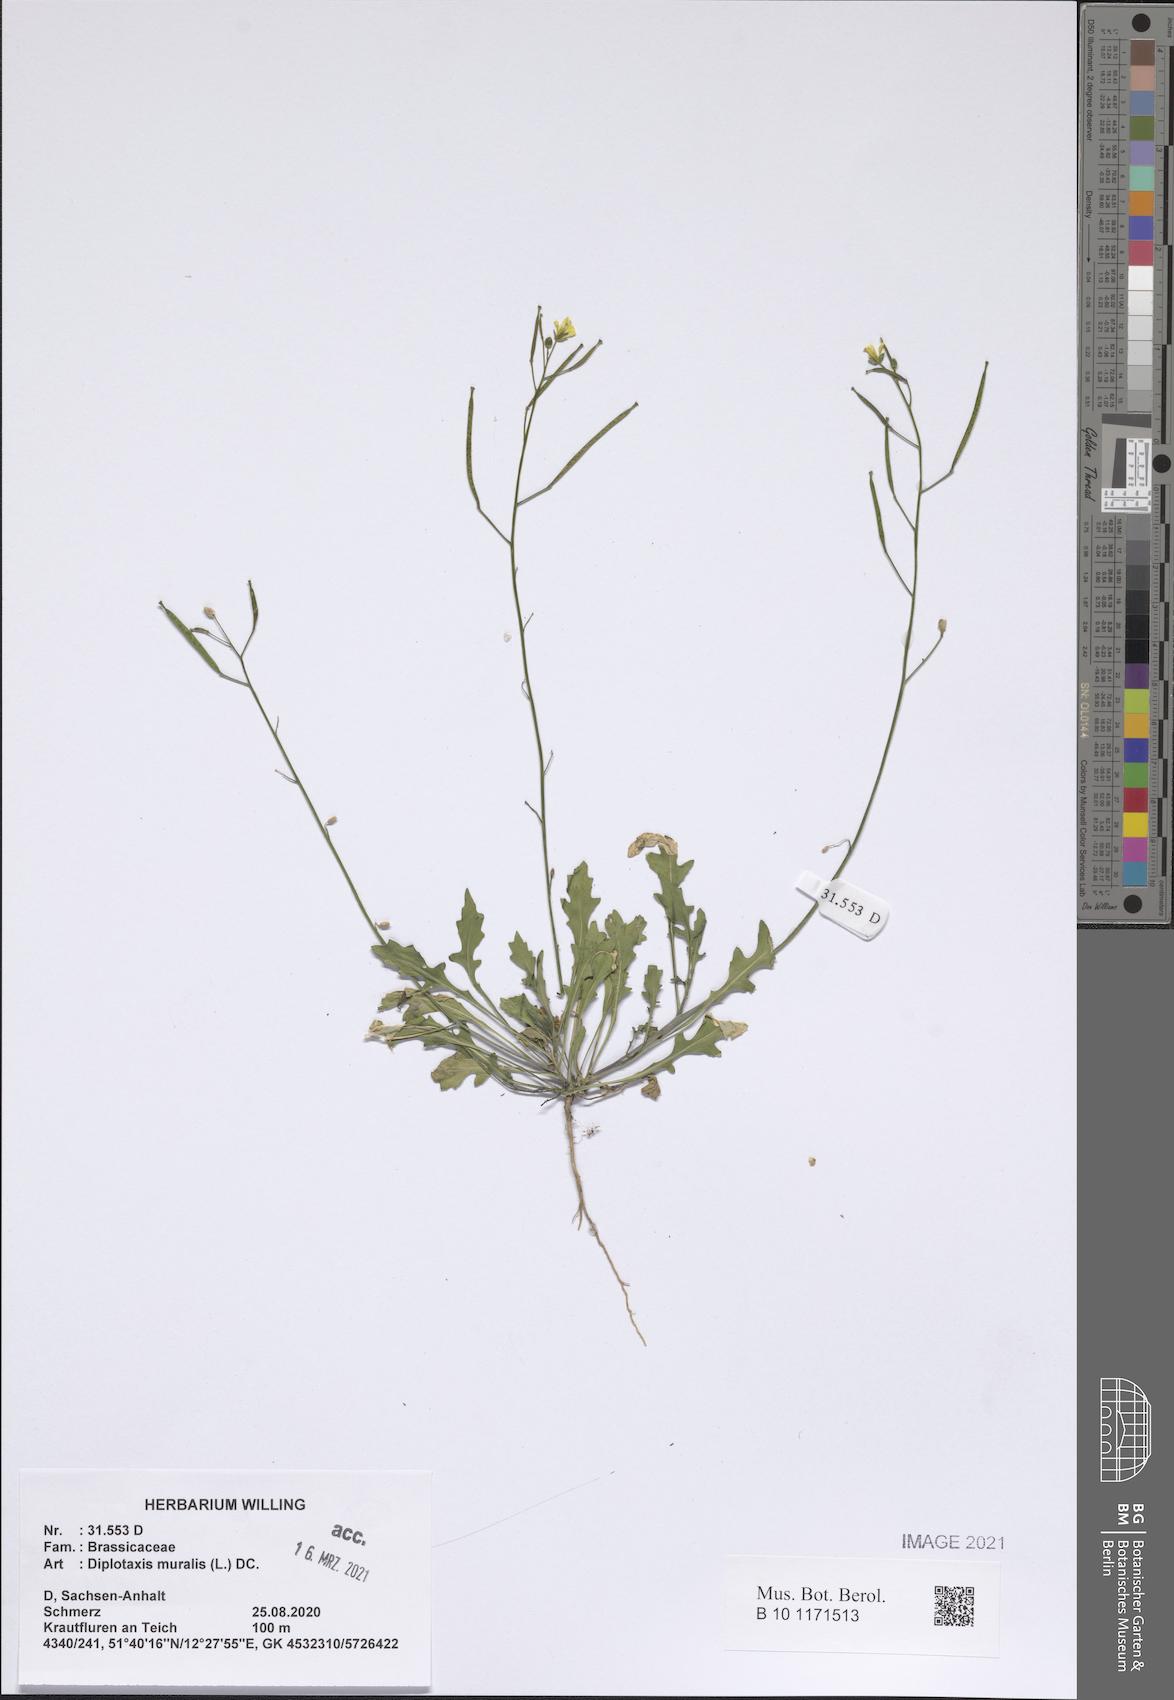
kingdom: Plantae
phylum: Tracheophyta
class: Magnoliopsida
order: Brassicales
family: Brassicaceae
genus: Diplotaxis
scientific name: Diplotaxis muralis
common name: Annual wall-rocket
